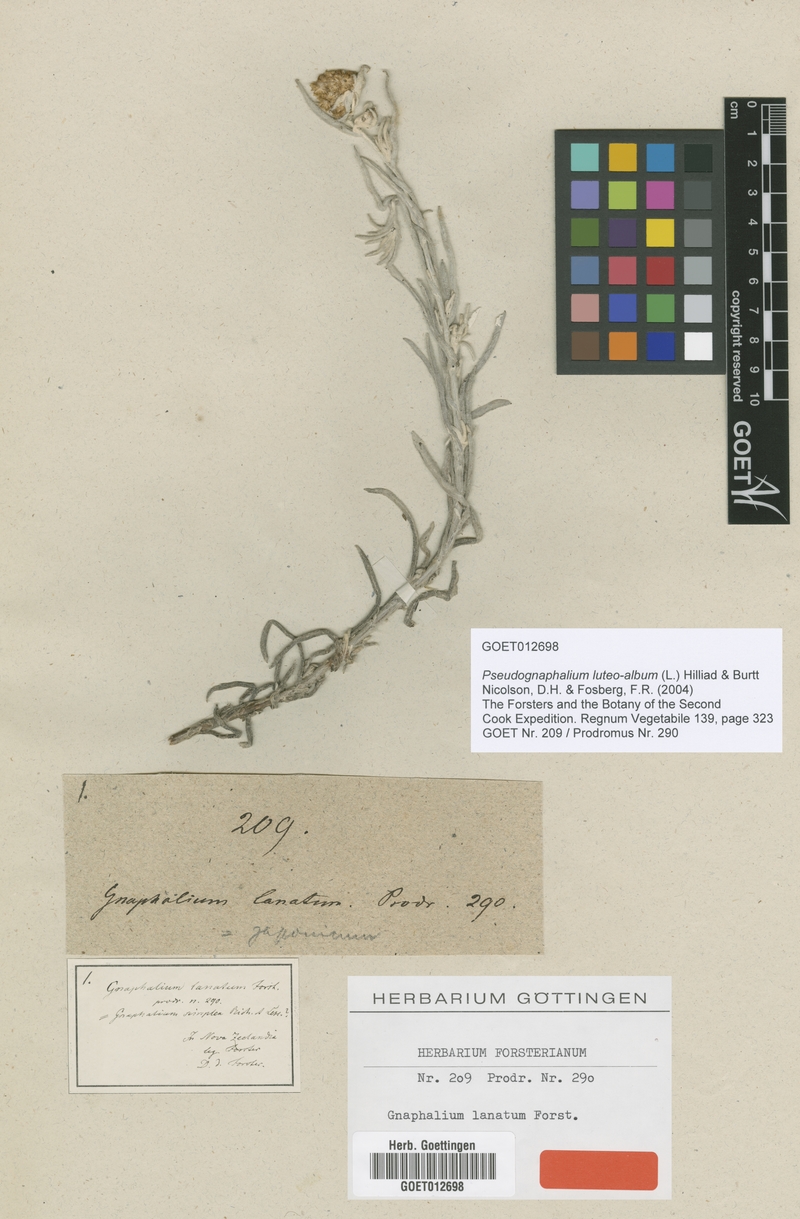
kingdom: Plantae
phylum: Tracheophyta
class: Magnoliopsida
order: Asterales
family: Asteraceae
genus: Helichrysum
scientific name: Helichrysum luteoalbum
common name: Daisy
